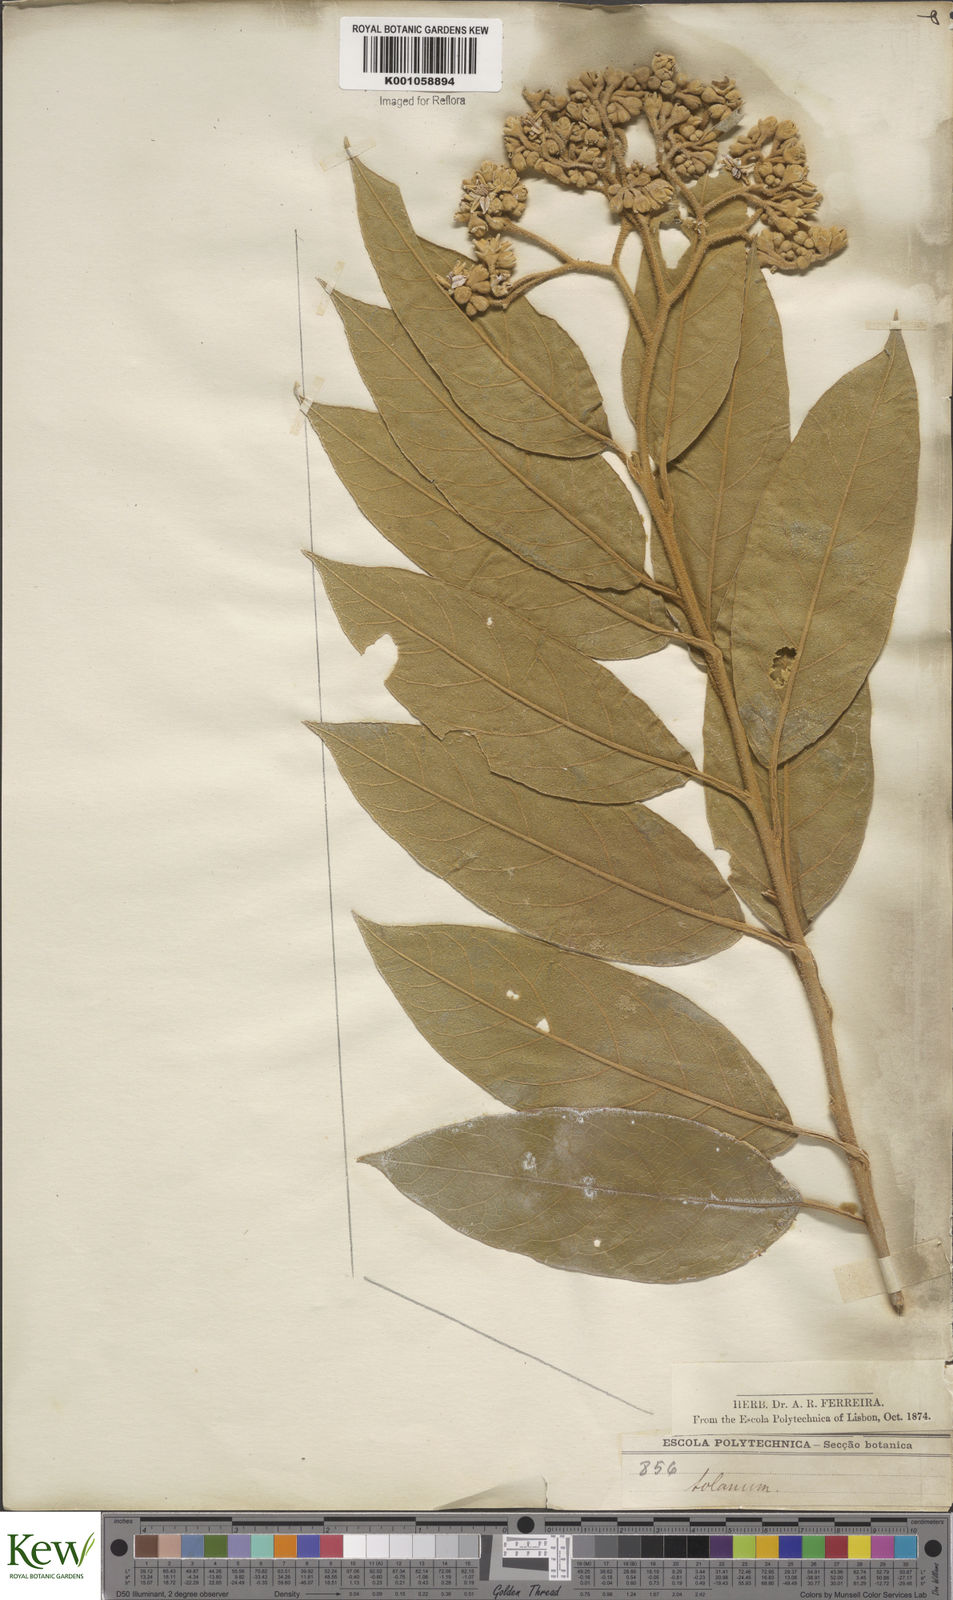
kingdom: Plantae
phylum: Tracheophyta
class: Magnoliopsida
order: Solanales
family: Solanaceae
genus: Solanum
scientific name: Solanum acutilobum
